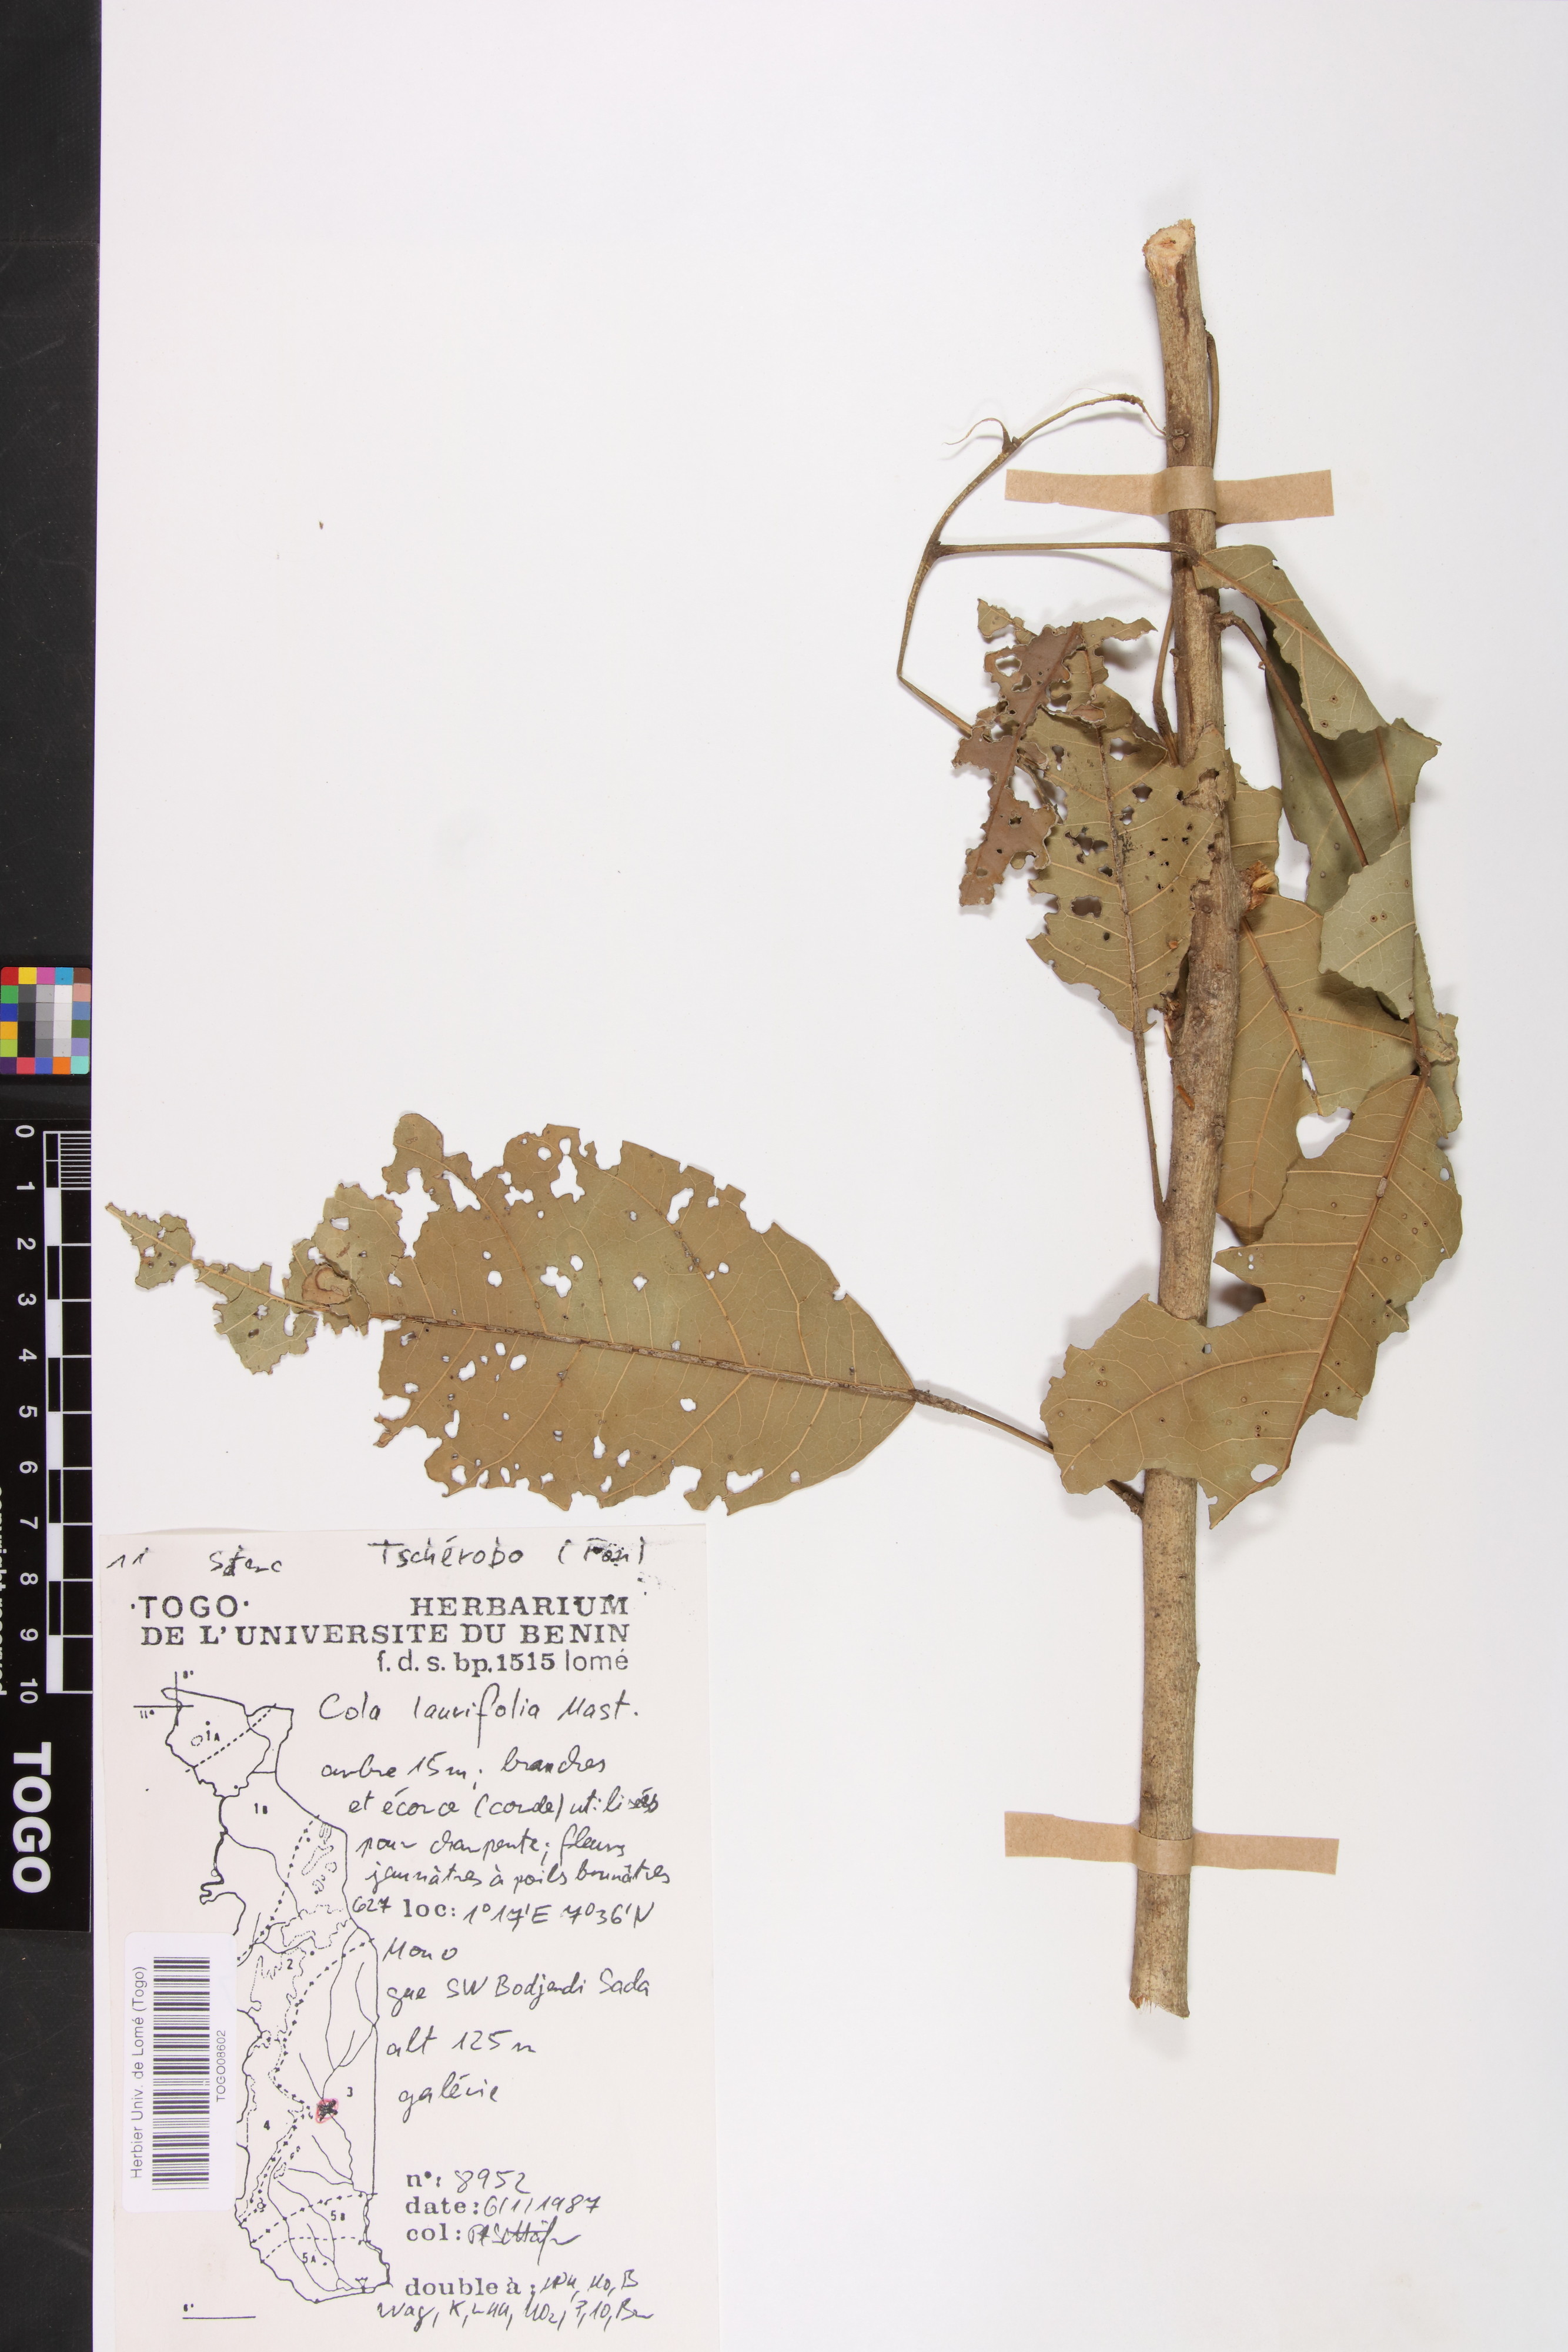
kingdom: Plantae
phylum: Tracheophyta
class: Magnoliopsida
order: Malvales
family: Malvaceae
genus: Cola
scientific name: Cola laurifolia
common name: Laurel-leaved kola
